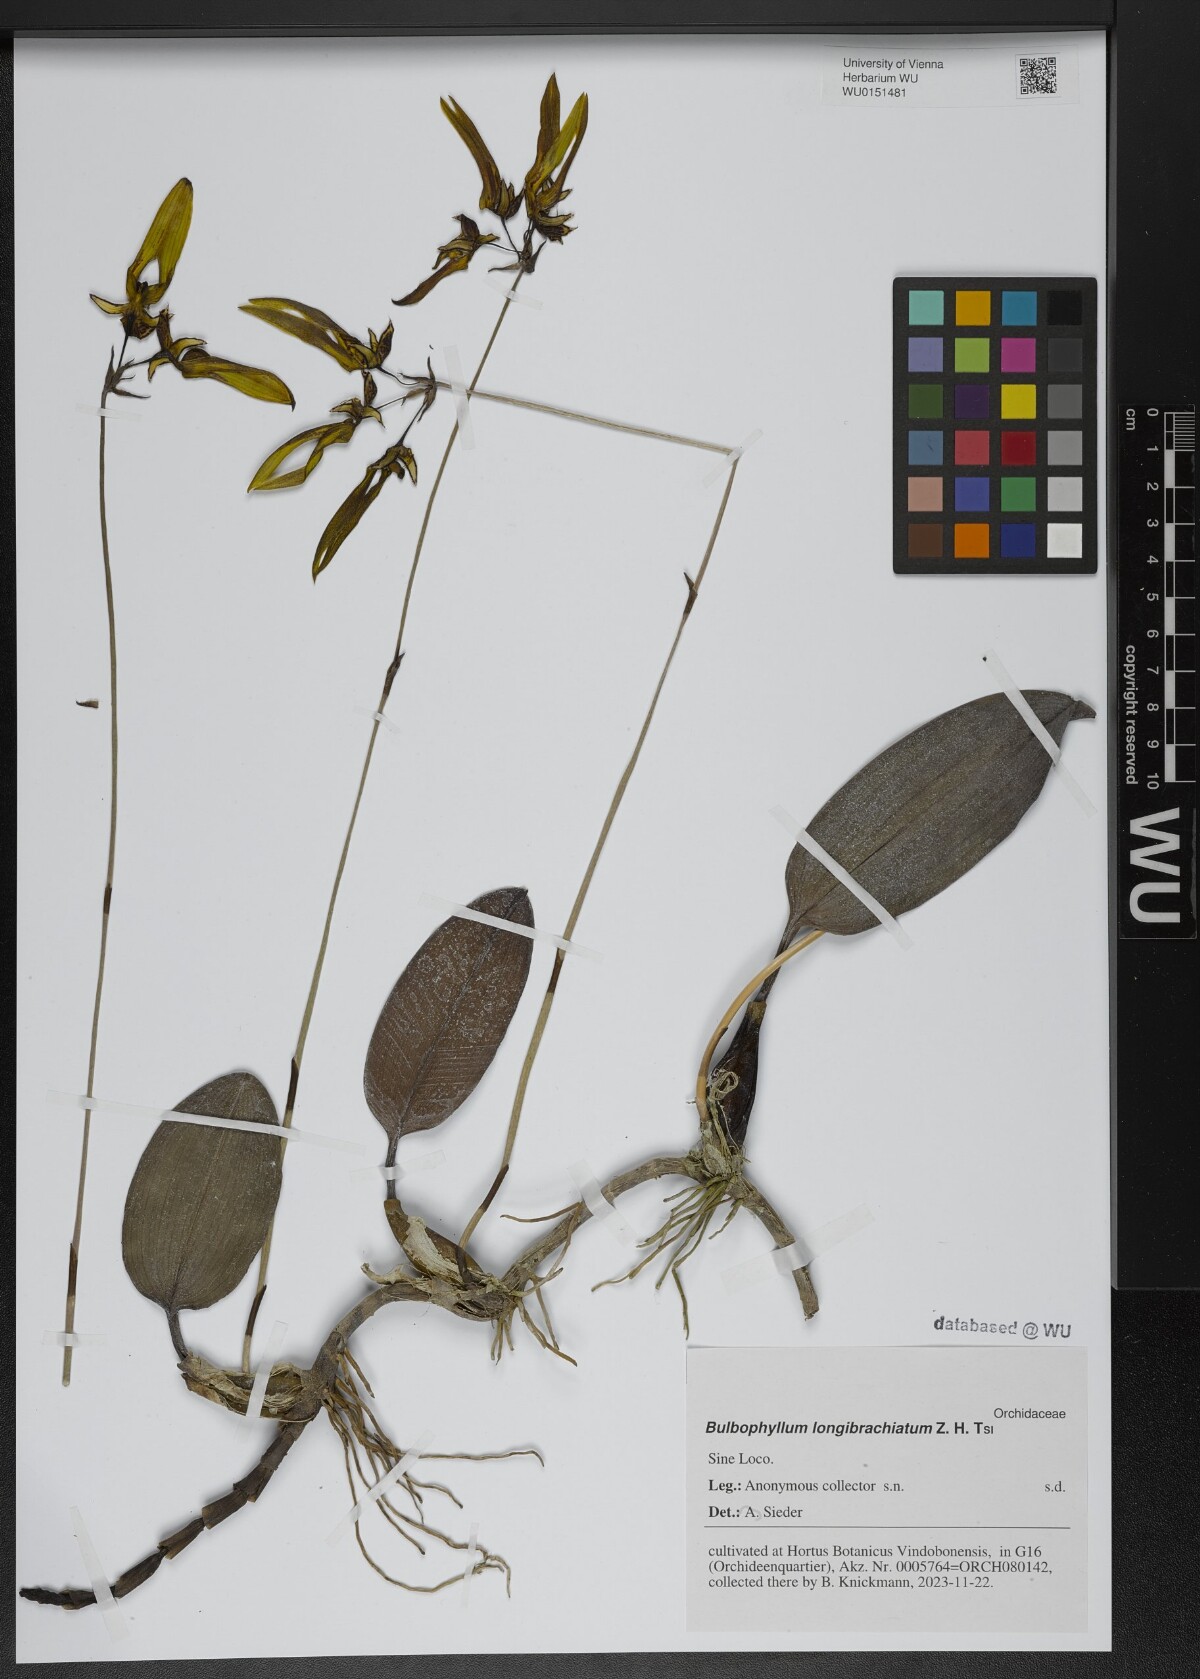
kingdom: Plantae
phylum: Tracheophyta
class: Liliopsida
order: Asparagales
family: Orchidaceae
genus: Bulbophyllum
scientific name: Bulbophyllum longibrachiatum
